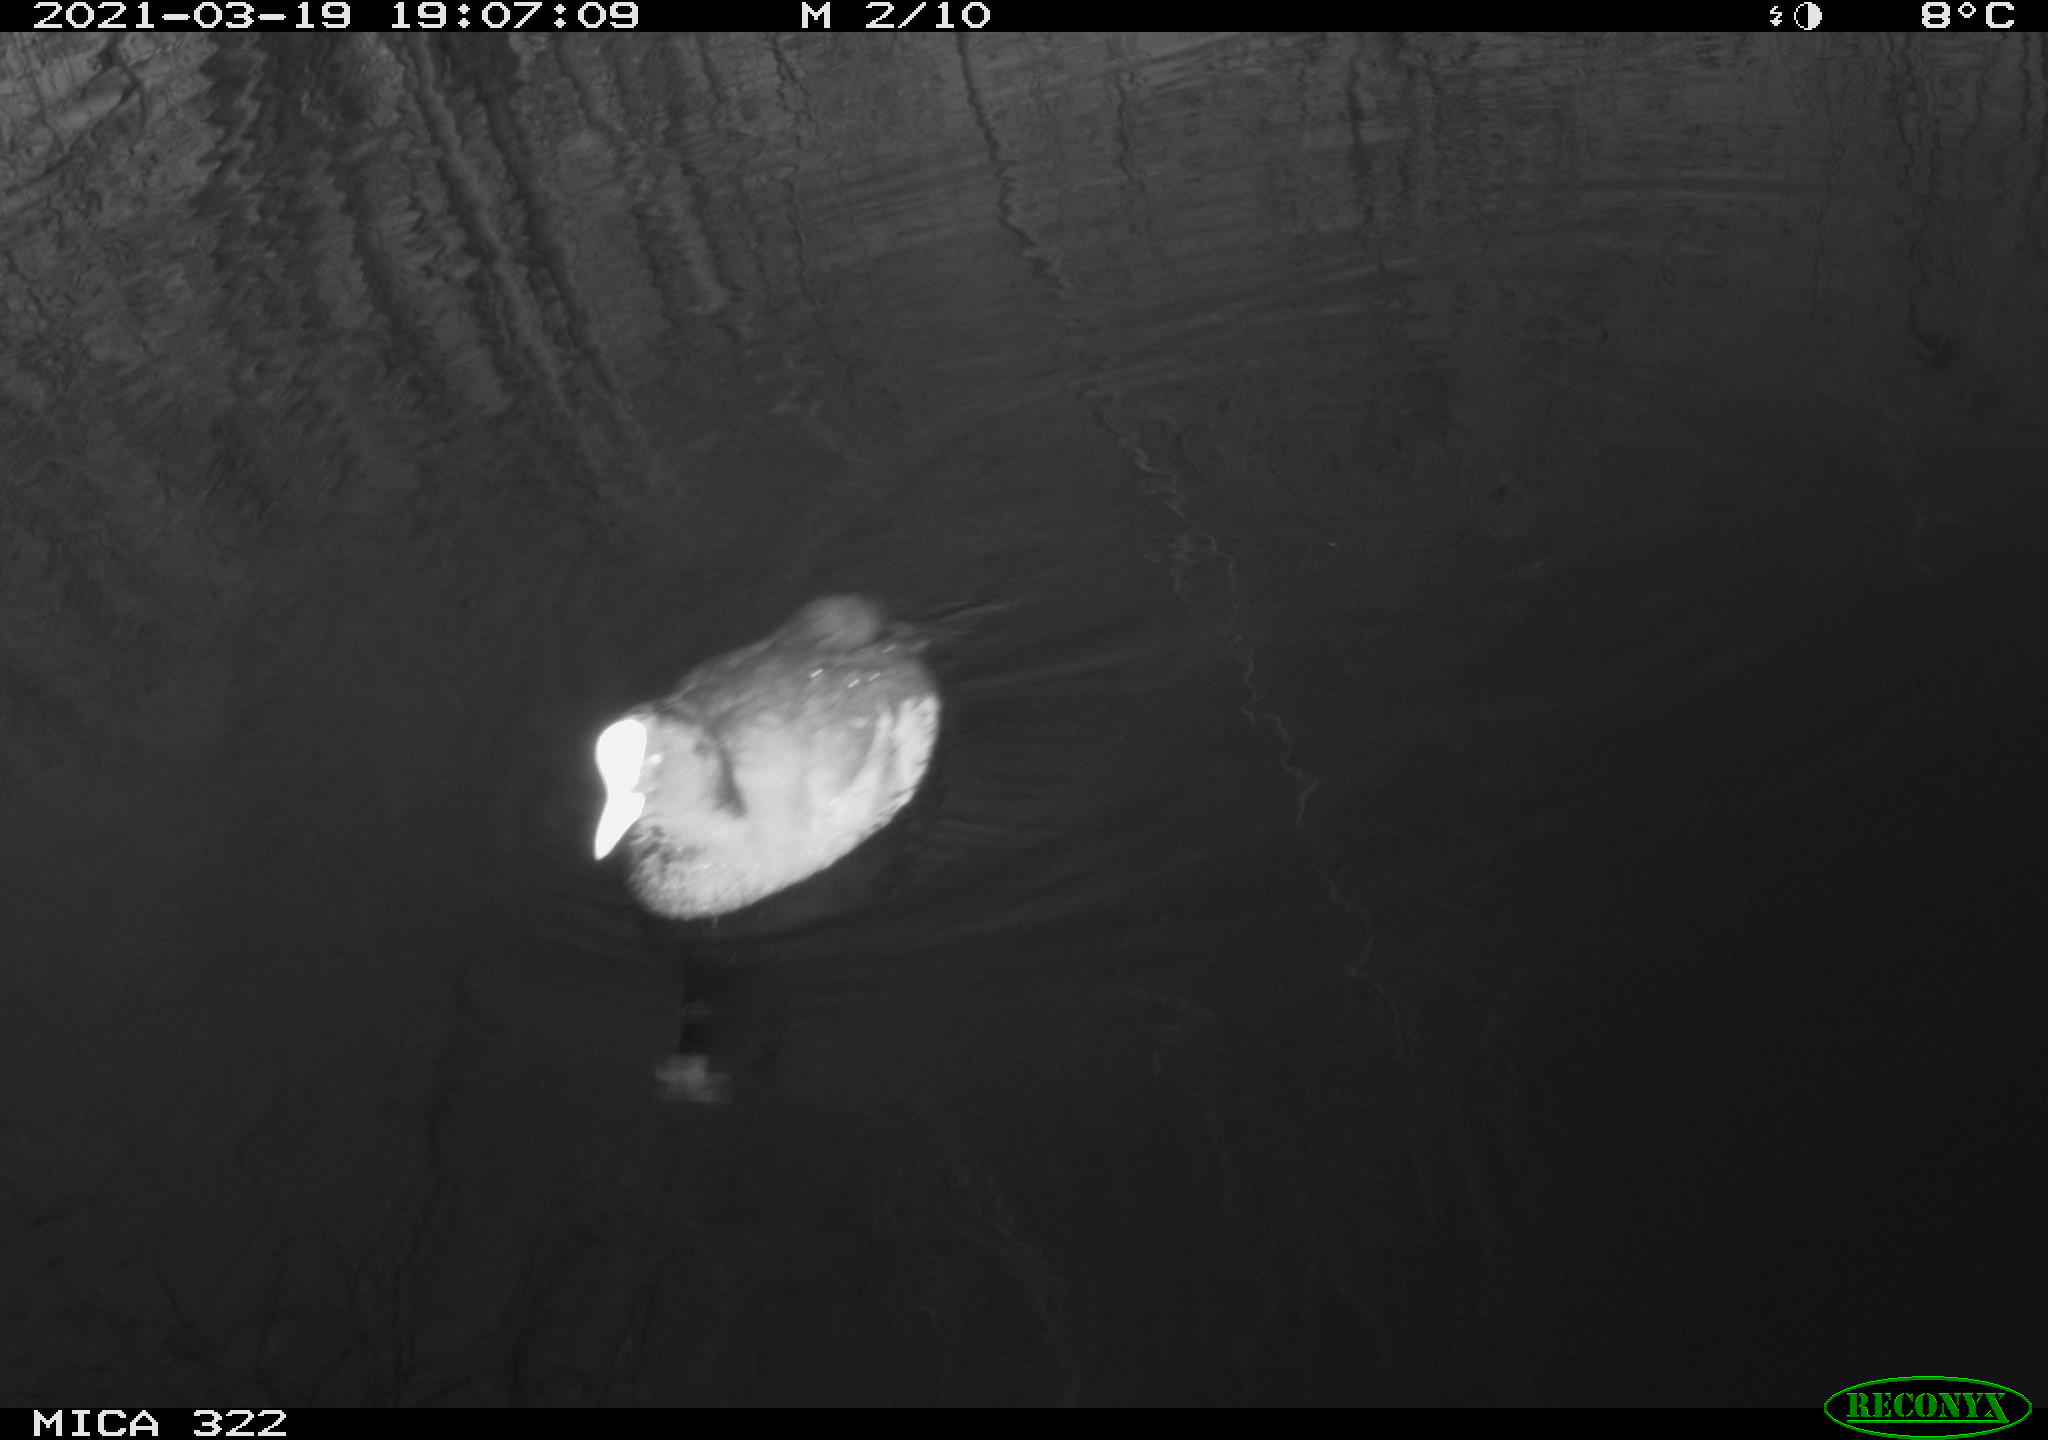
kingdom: Animalia
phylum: Chordata
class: Aves
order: Gruiformes
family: Rallidae
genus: Fulica
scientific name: Fulica atra
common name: Eurasian coot
